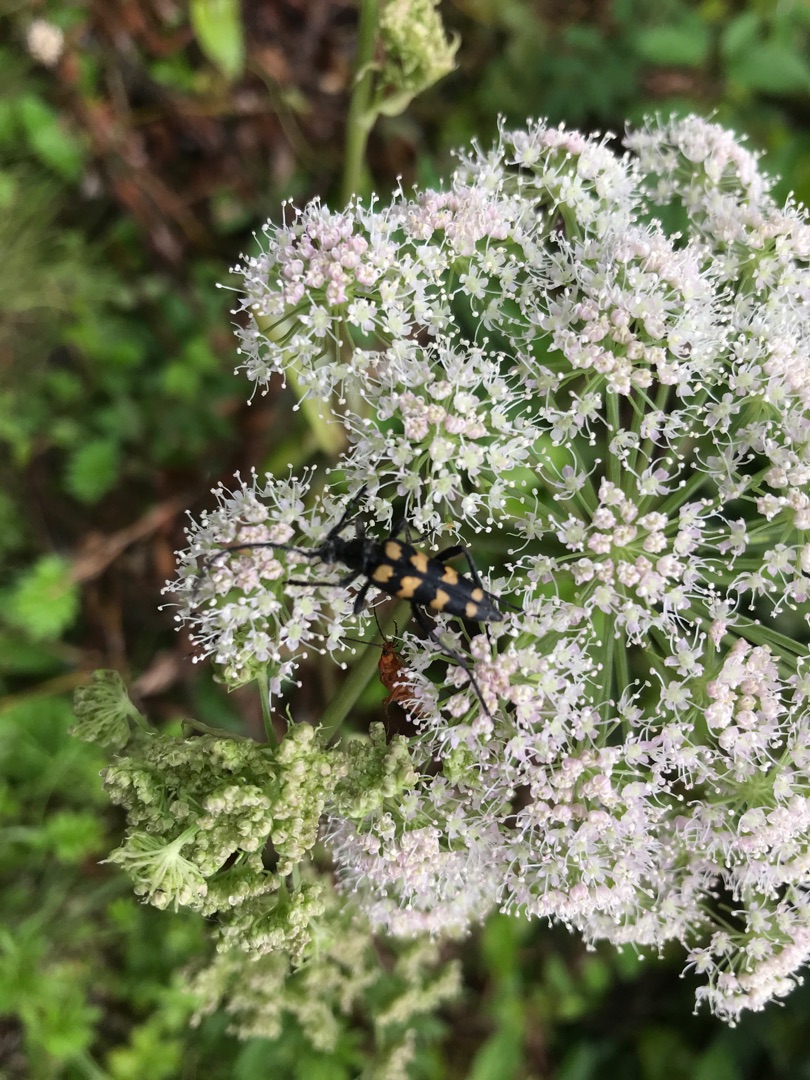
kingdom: Animalia
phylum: Arthropoda
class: Insecta
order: Coleoptera
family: Cerambycidae
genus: Leptura
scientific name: Leptura quadrifasciata
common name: Firebåndet blomsterbuk
